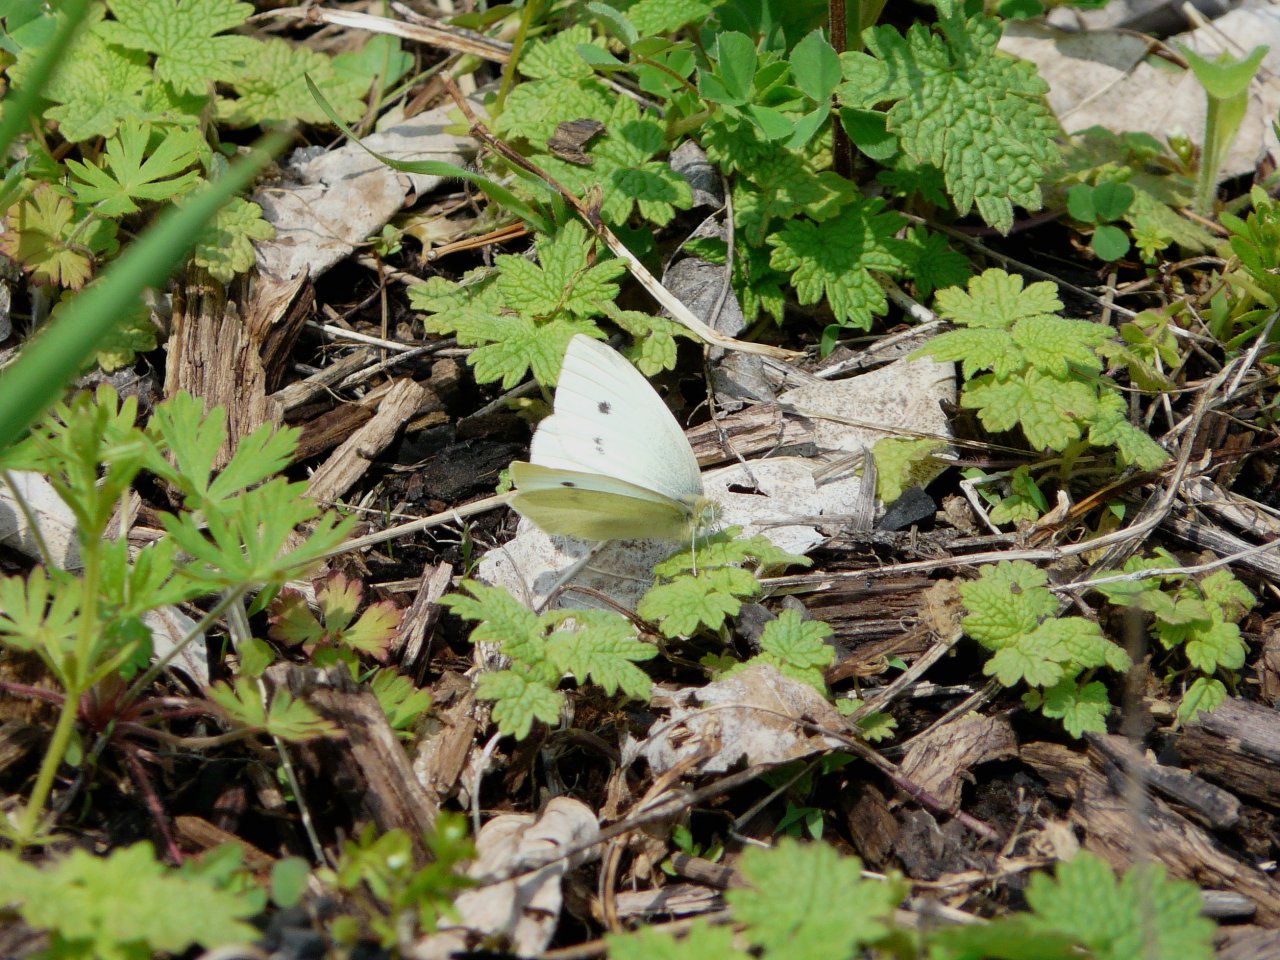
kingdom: Animalia
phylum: Arthropoda
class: Insecta
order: Lepidoptera
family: Pieridae
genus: Pieris
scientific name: Pieris rapae
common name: Cabbage White
